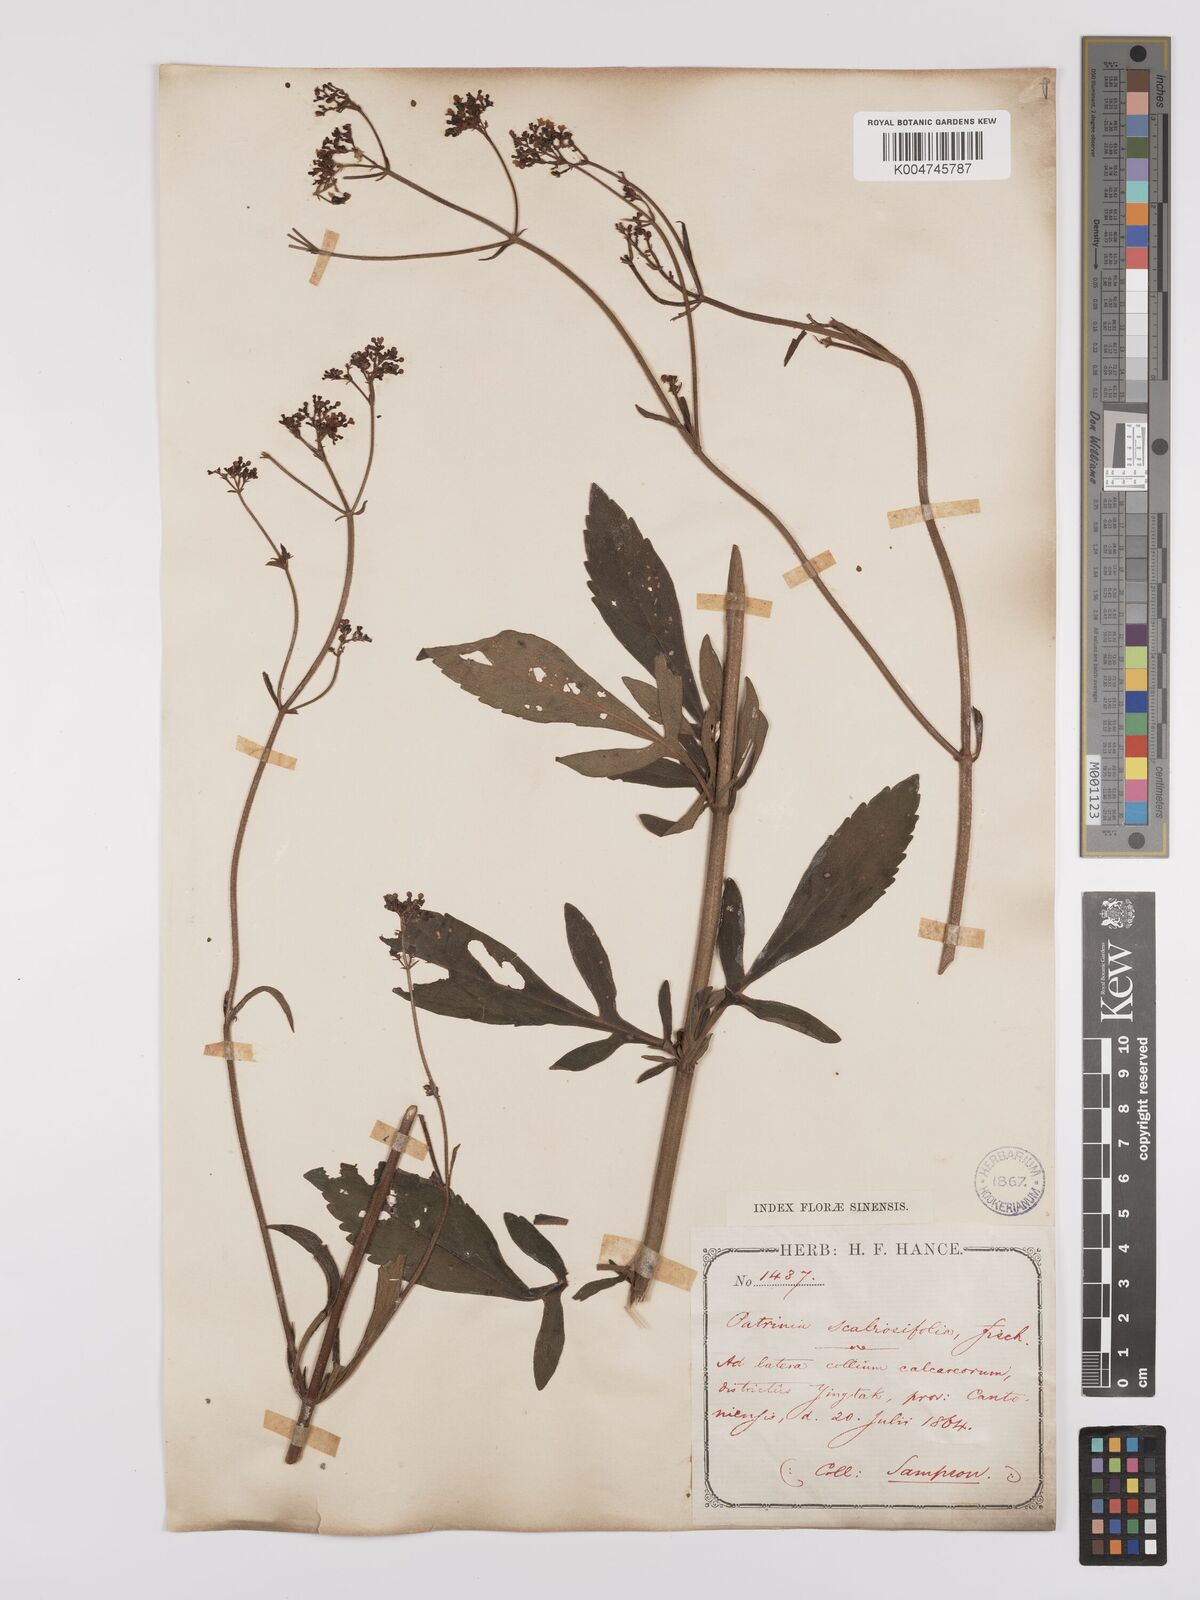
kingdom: Plantae
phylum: Tracheophyta
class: Magnoliopsida
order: Dipsacales
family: Caprifoliaceae
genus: Patrinia
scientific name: Patrinia scabiosifolia
